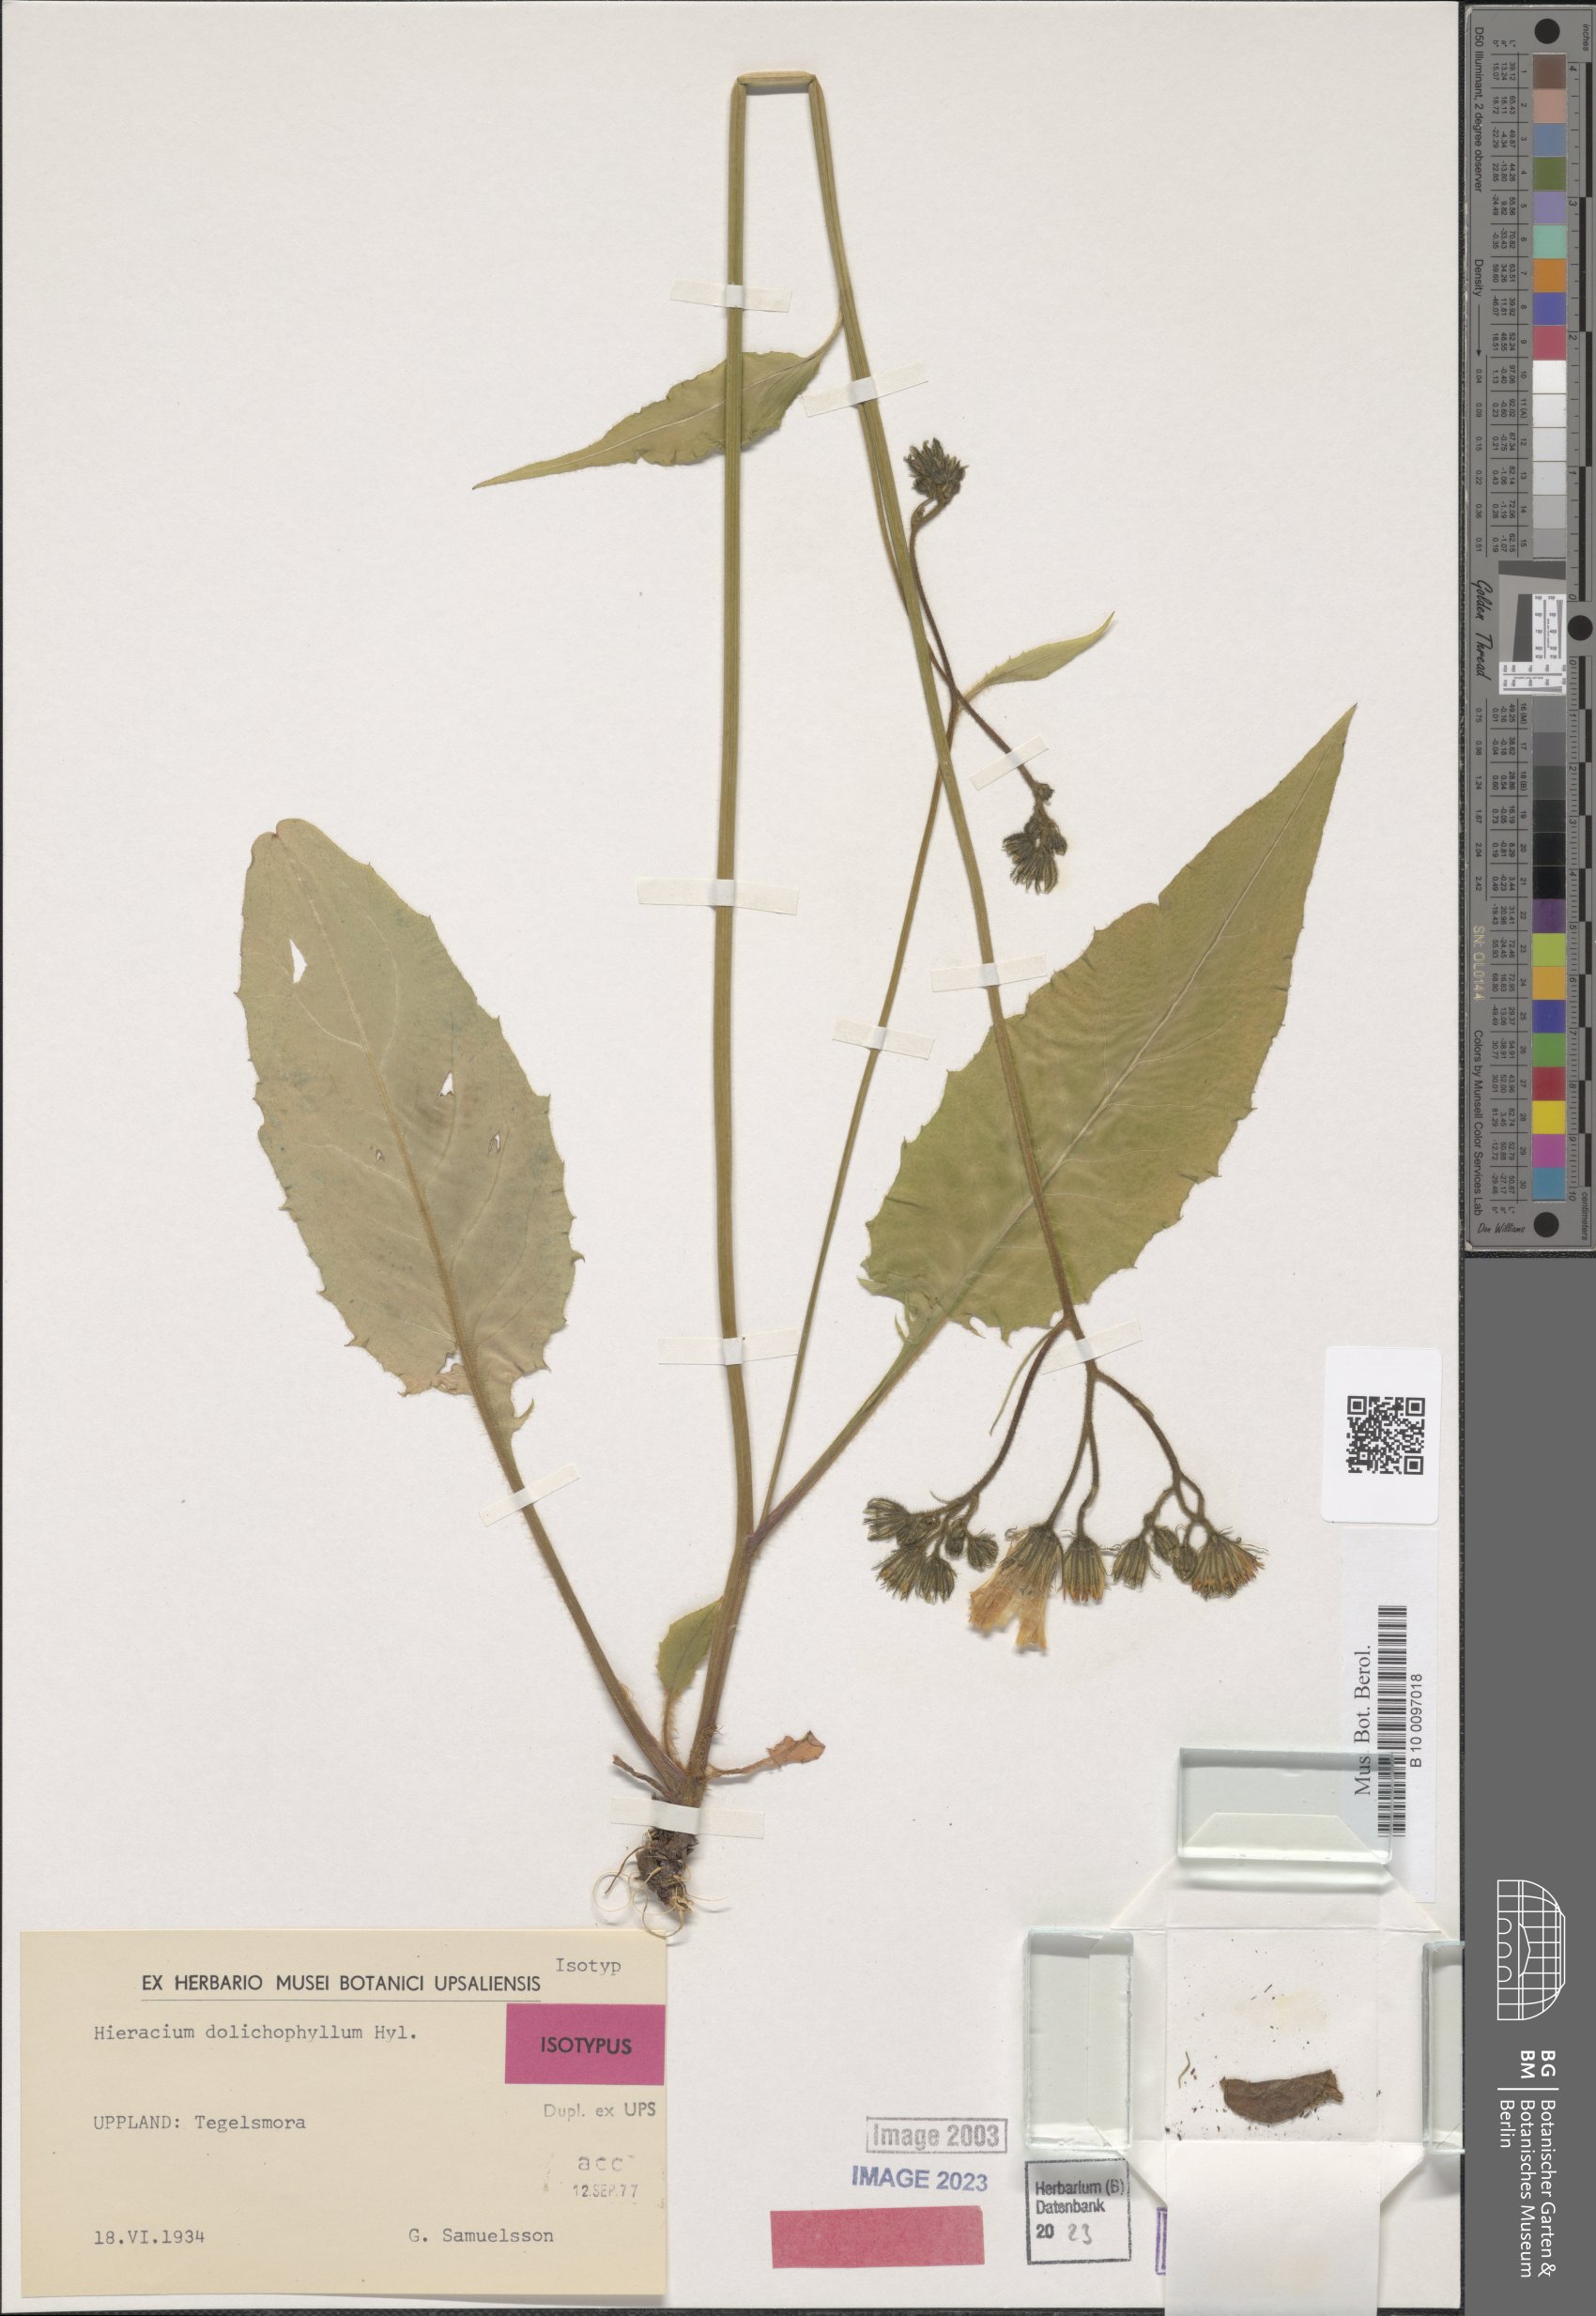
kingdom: Plantae
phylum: Tracheophyta
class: Magnoliopsida
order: Asterales
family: Asteraceae
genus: Hieracium
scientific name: Hieracium dolichophyllum
